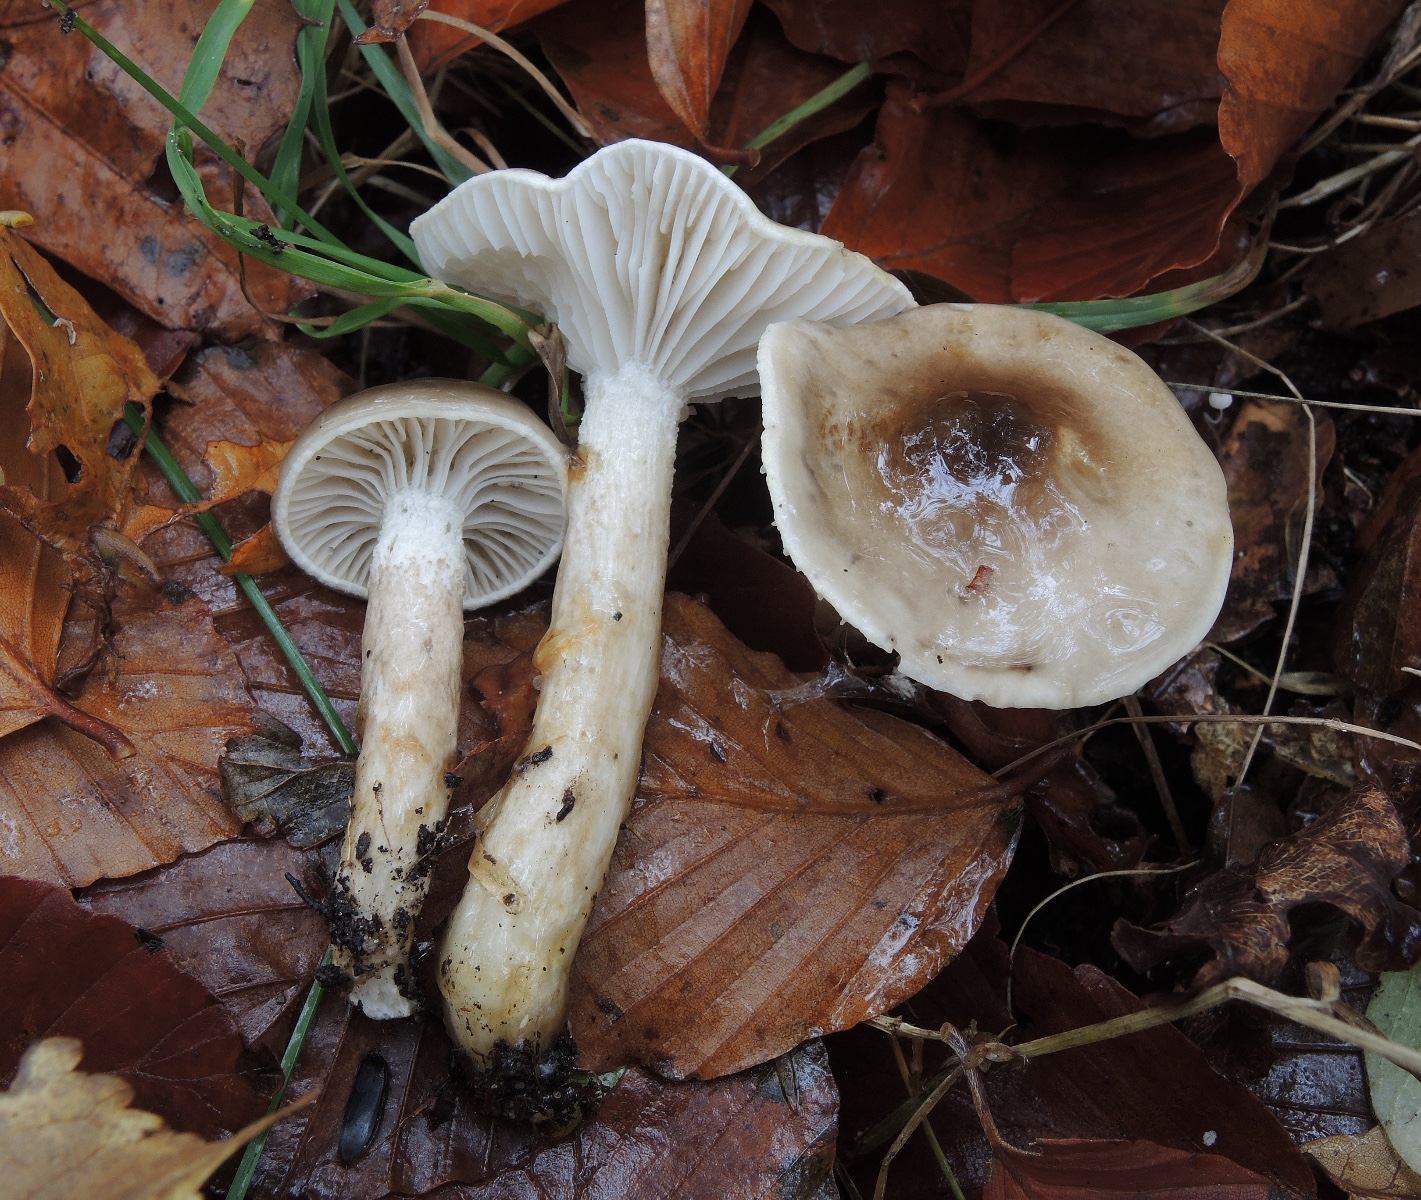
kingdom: Fungi
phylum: Basidiomycota
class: Agaricomycetes
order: Agaricales
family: Hygrophoraceae
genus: Hygrophorus
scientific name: Hygrophorus glutinifer
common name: tvefarvet sneglehat
